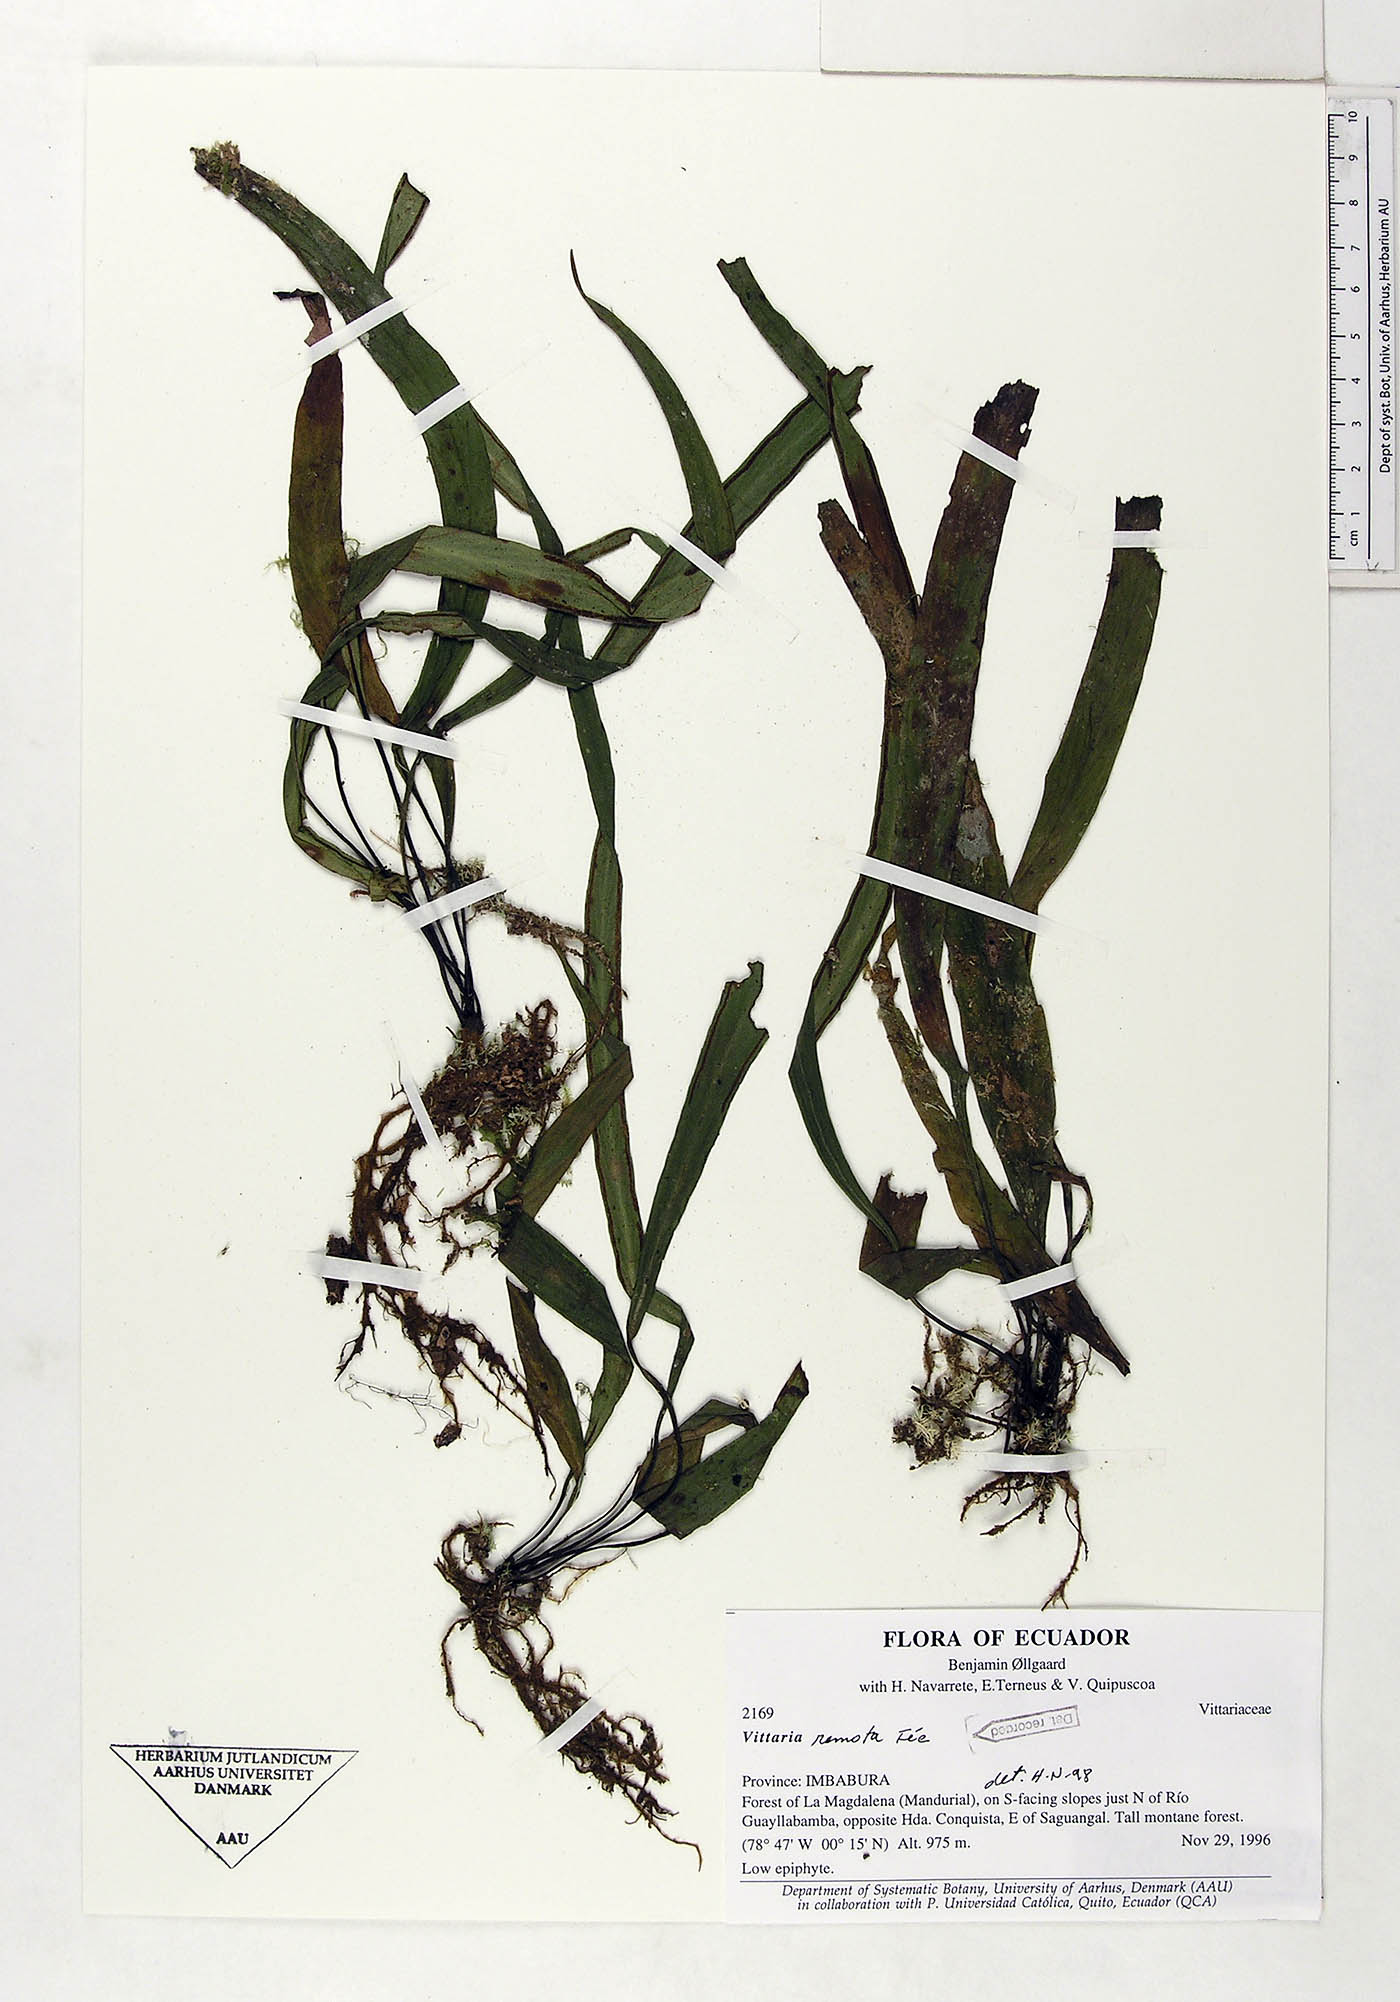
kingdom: Plantae
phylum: Tracheophyta
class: Polypodiopsida
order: Polypodiales
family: Pteridaceae
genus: Radiovittaria
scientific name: Radiovittaria remota
